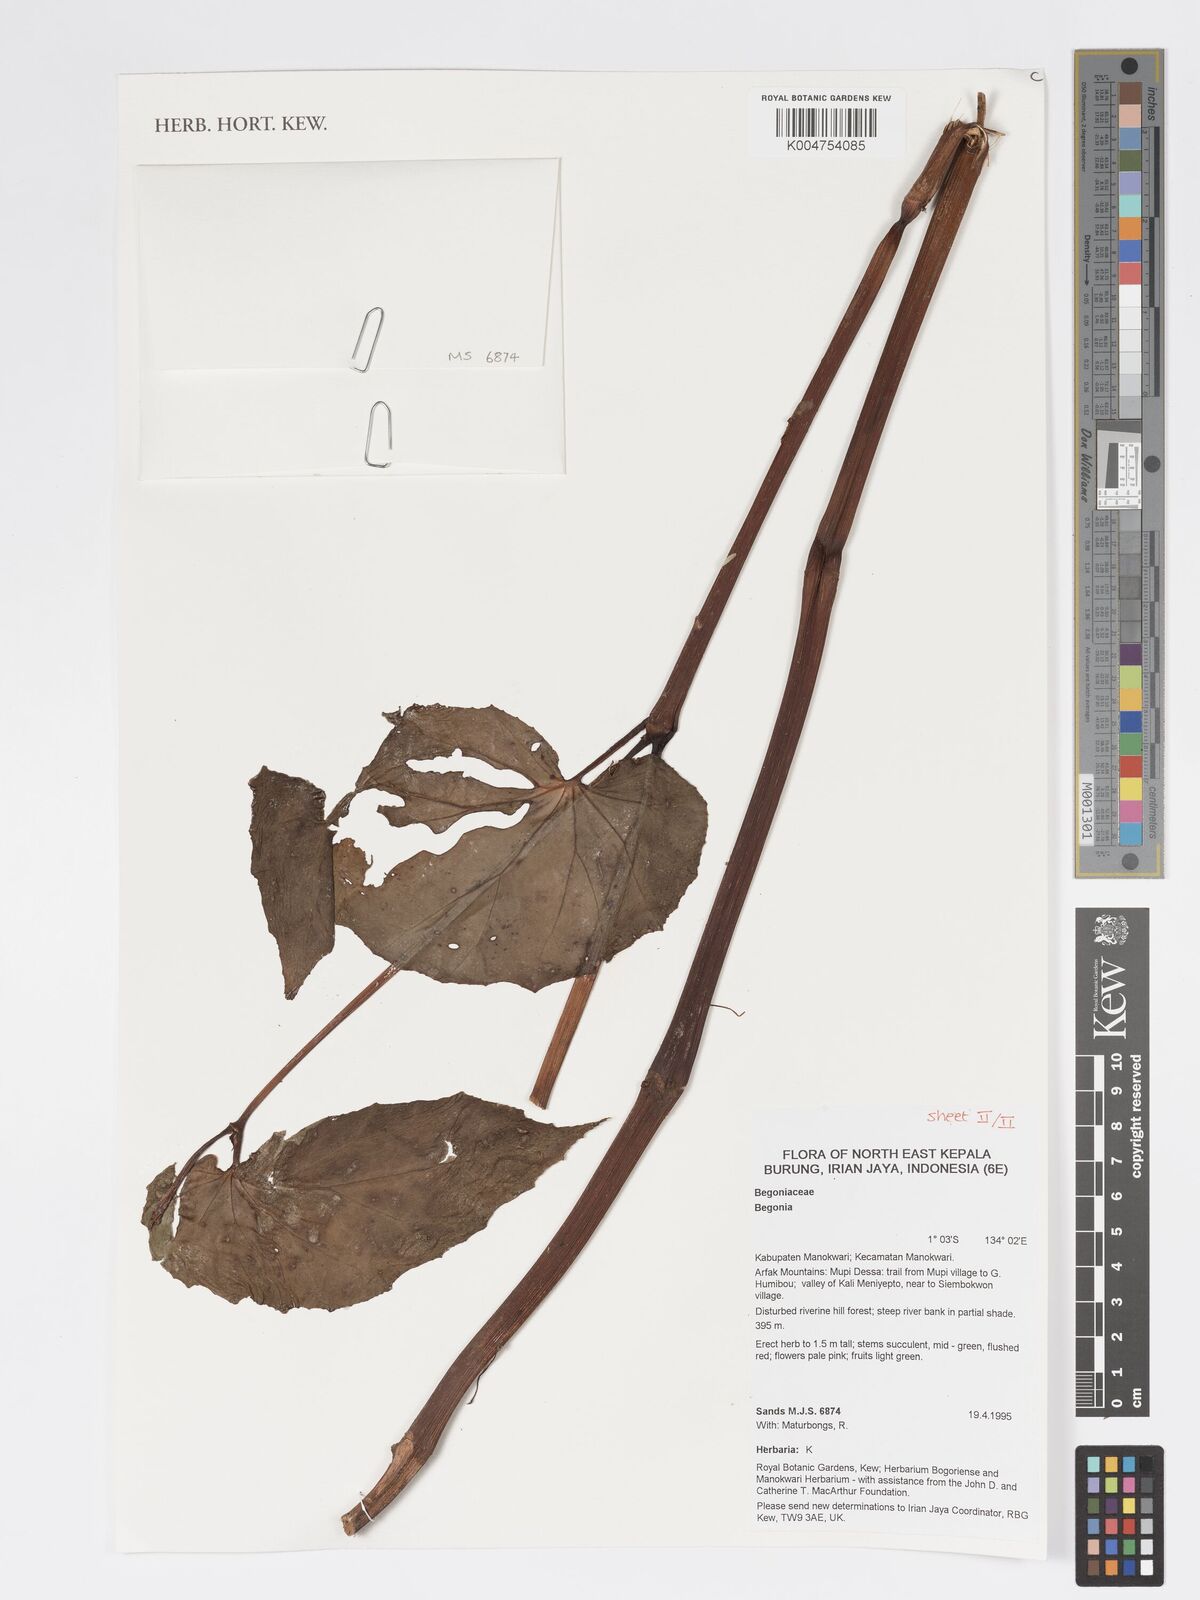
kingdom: Plantae
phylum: Tracheophyta
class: Magnoliopsida
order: Cucurbitales
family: Begoniaceae
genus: Begonia
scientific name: Begonia
